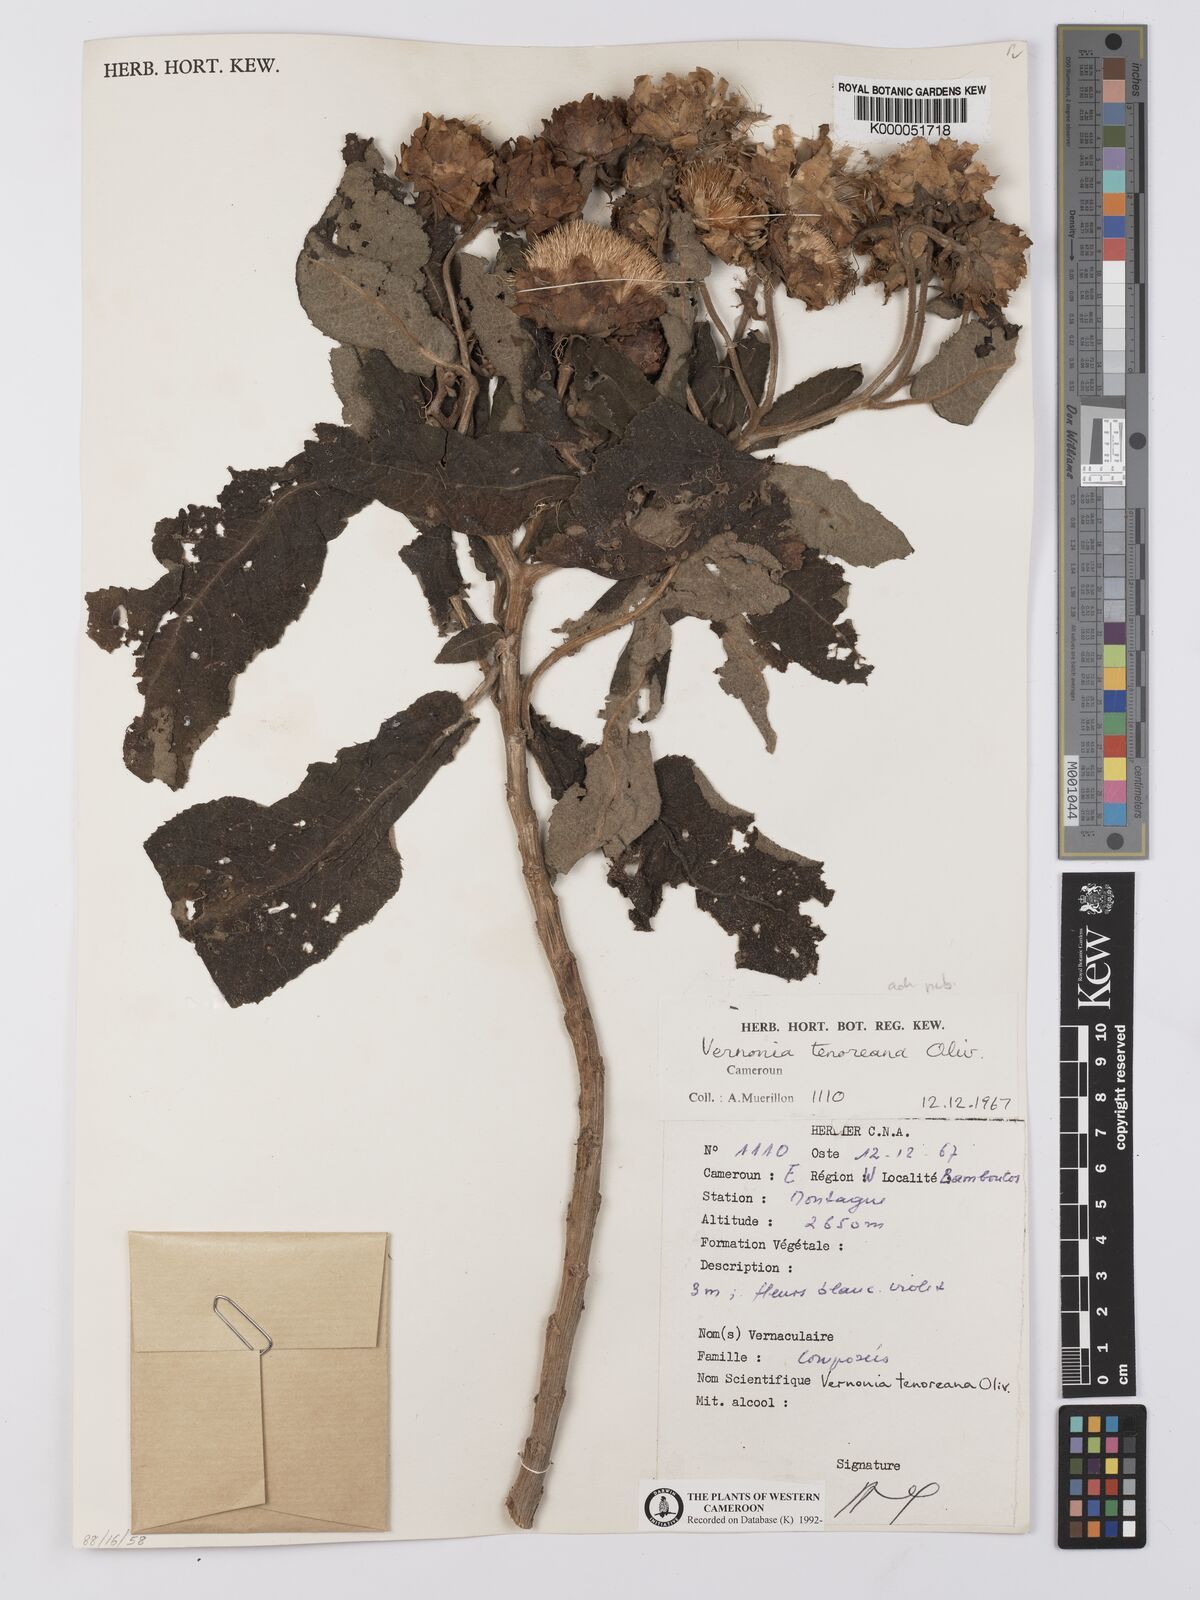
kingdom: Plantae
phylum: Tracheophyta
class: Magnoliopsida
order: Asterales
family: Asteraceae
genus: Baccharoides
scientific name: Baccharoides tenoreana
